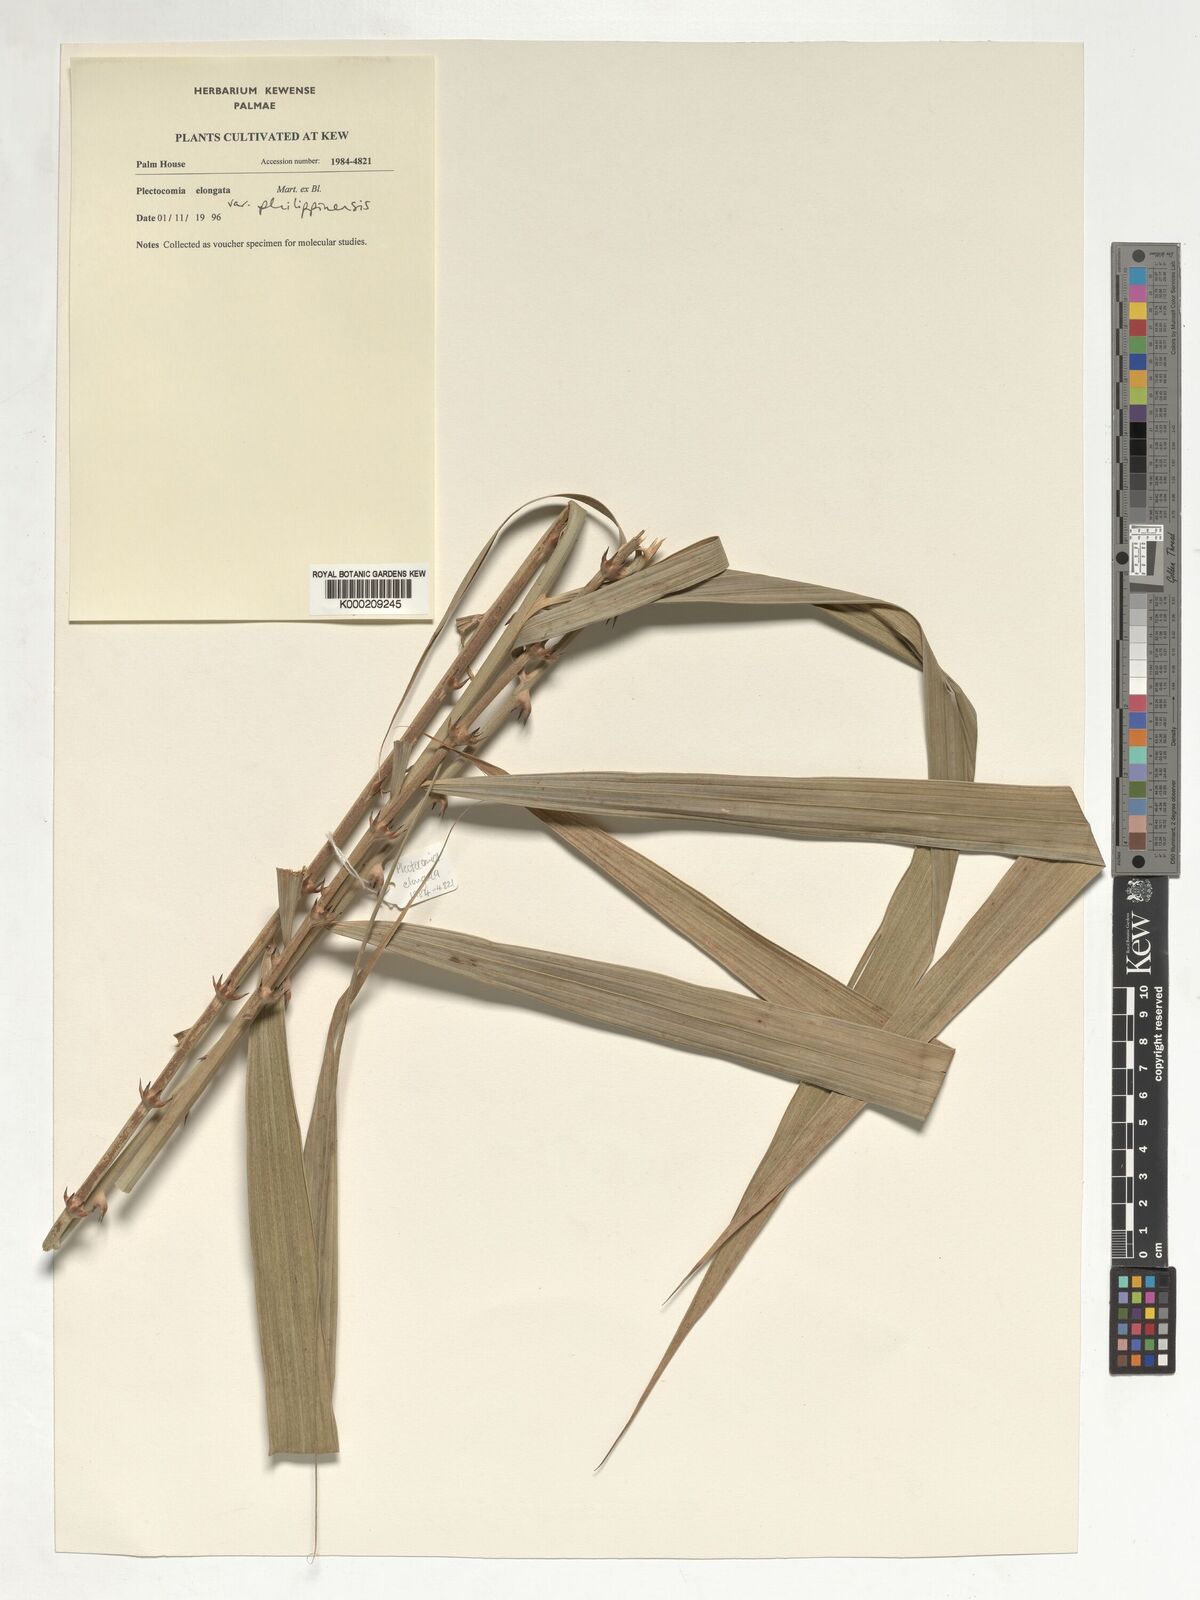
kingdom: Plantae
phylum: Tracheophyta
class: Liliopsida
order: Arecales
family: Arecaceae
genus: Plectocomia
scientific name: Plectocomia elongata
